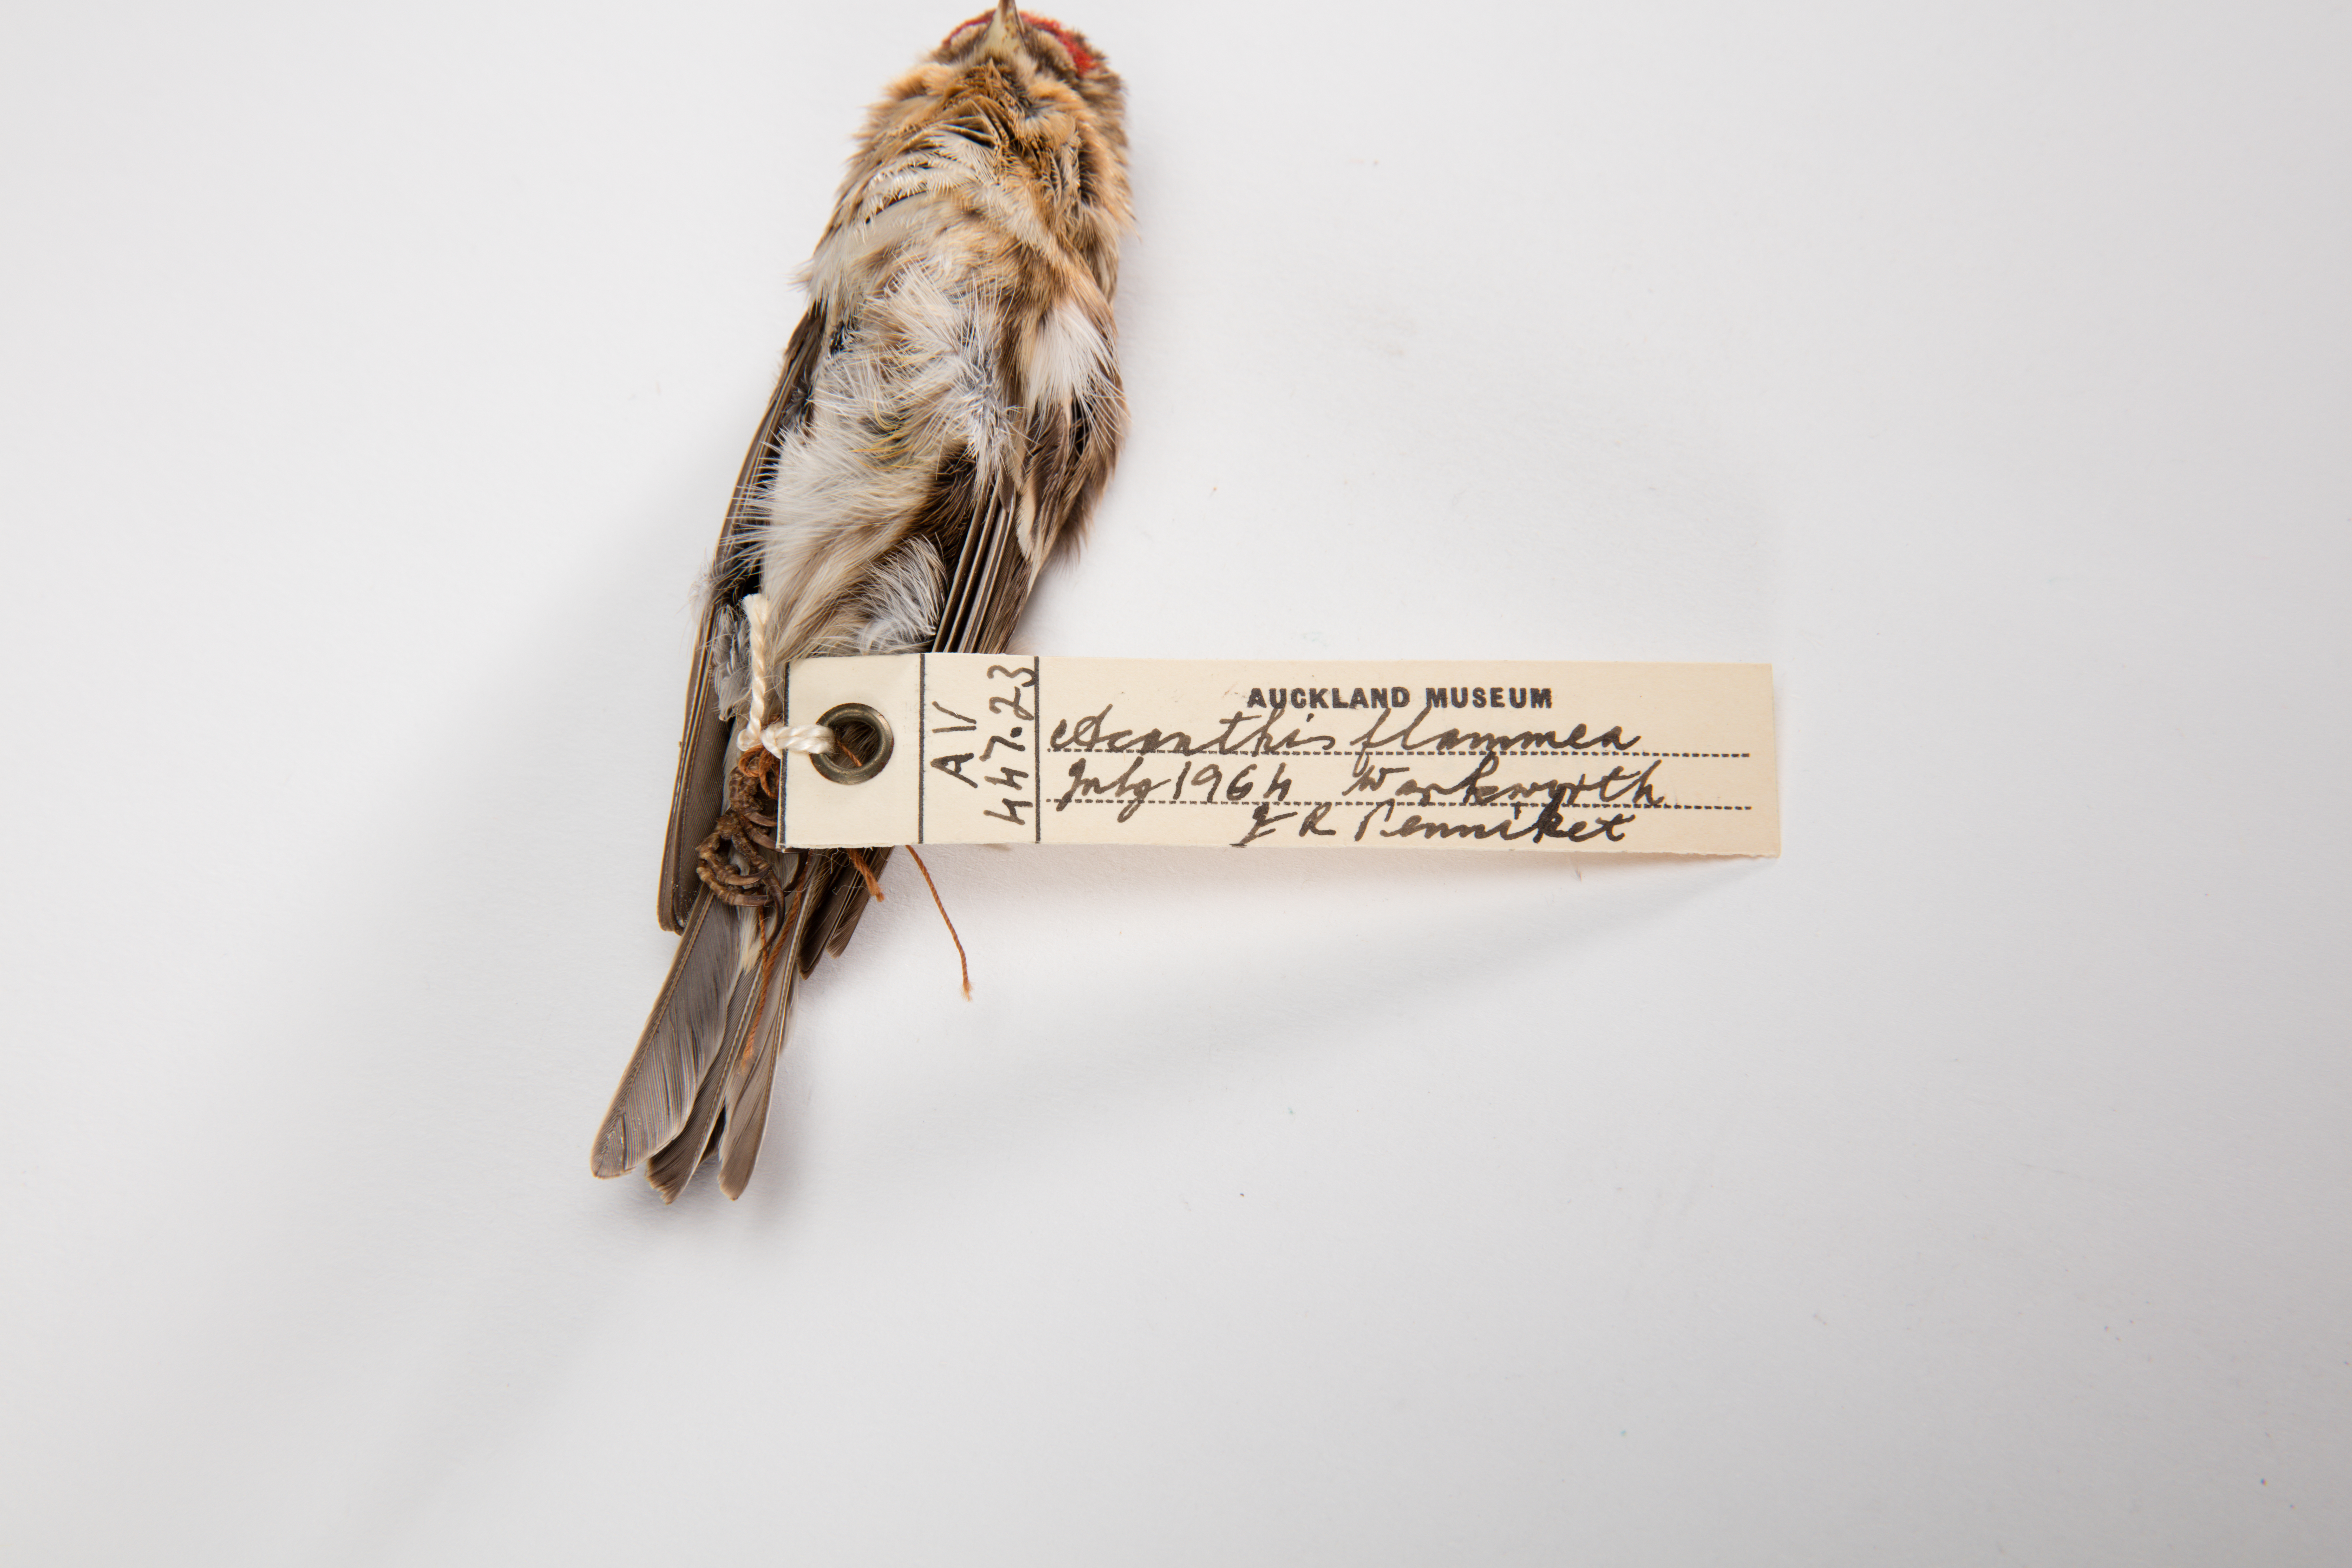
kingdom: Animalia
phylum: Chordata
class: Aves
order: Passeriformes
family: Fringillidae
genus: Acanthis
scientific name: Acanthis flammea
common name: Common redpoll
